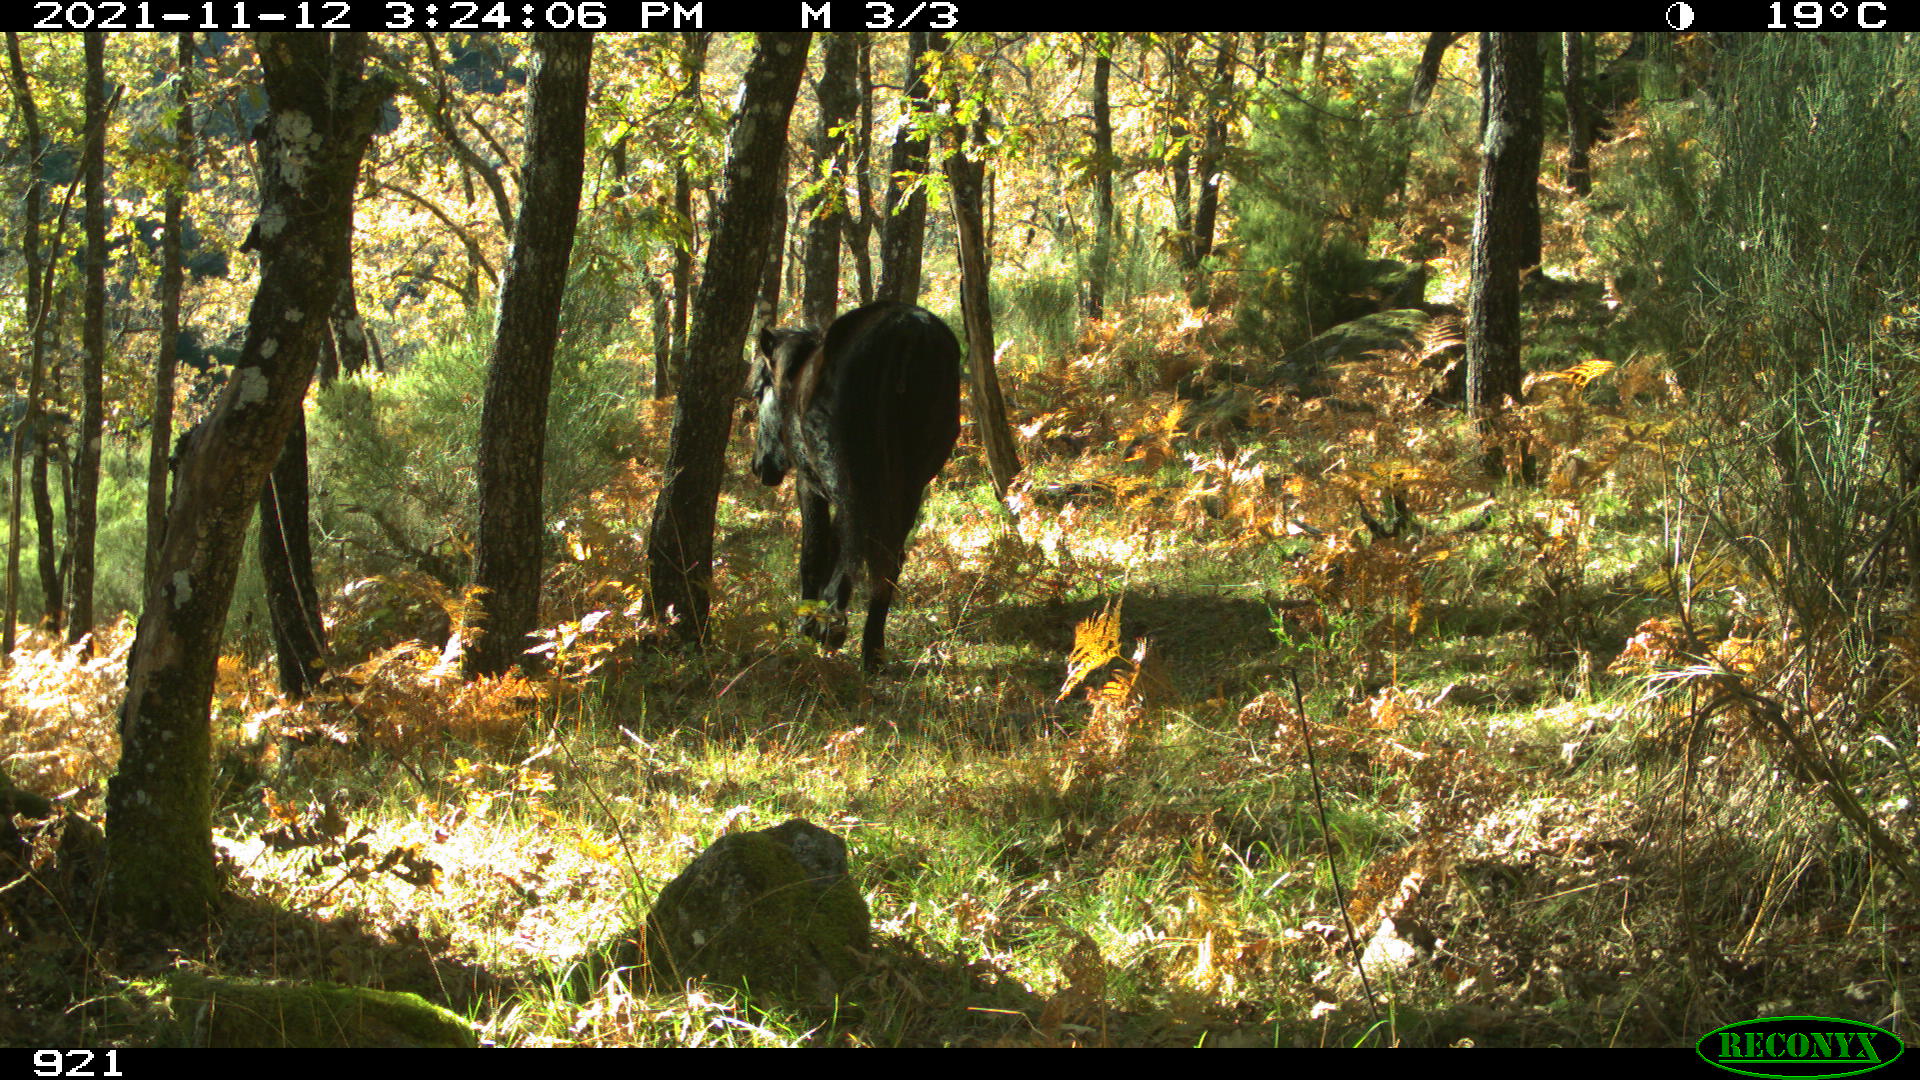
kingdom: Animalia
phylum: Chordata
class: Mammalia
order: Perissodactyla
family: Equidae
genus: Equus
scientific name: Equus caballus
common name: Horse
